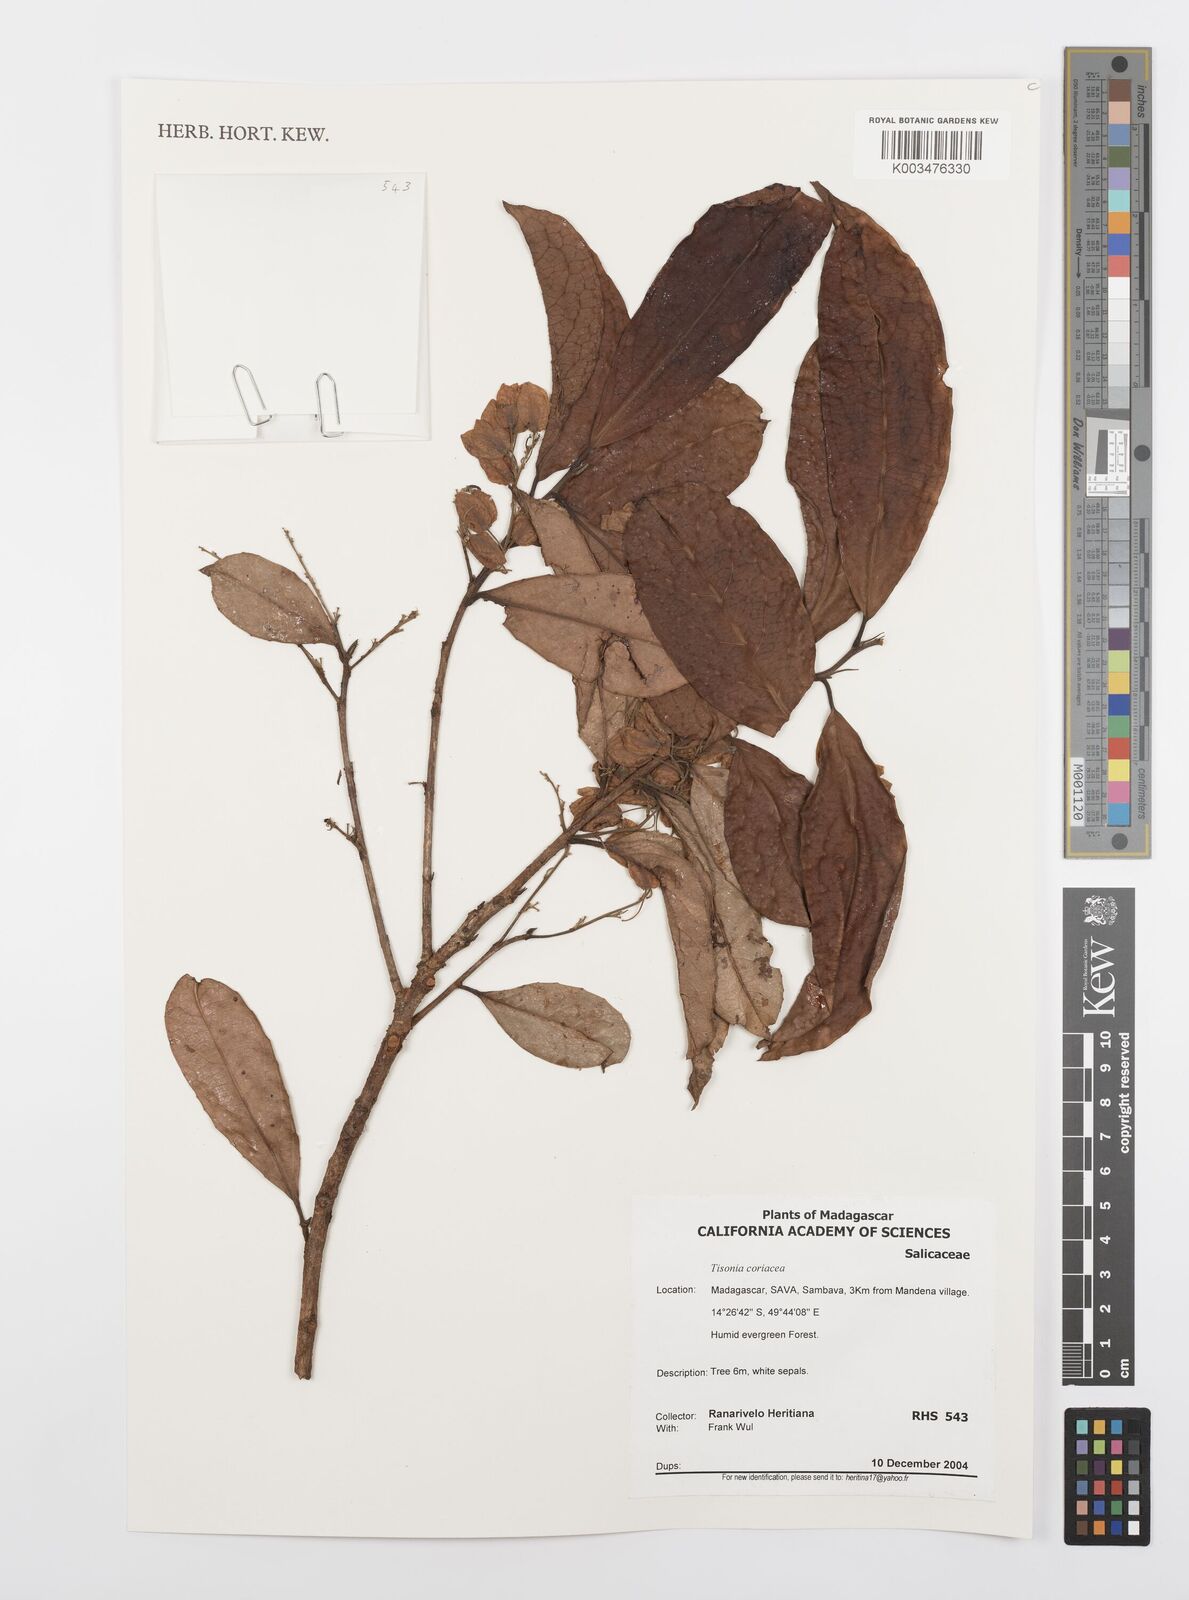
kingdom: Plantae
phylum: Tracheophyta
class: Magnoliopsida
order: Malpighiales
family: Salicaceae
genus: Tisonia
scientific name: Tisonia coriacea
